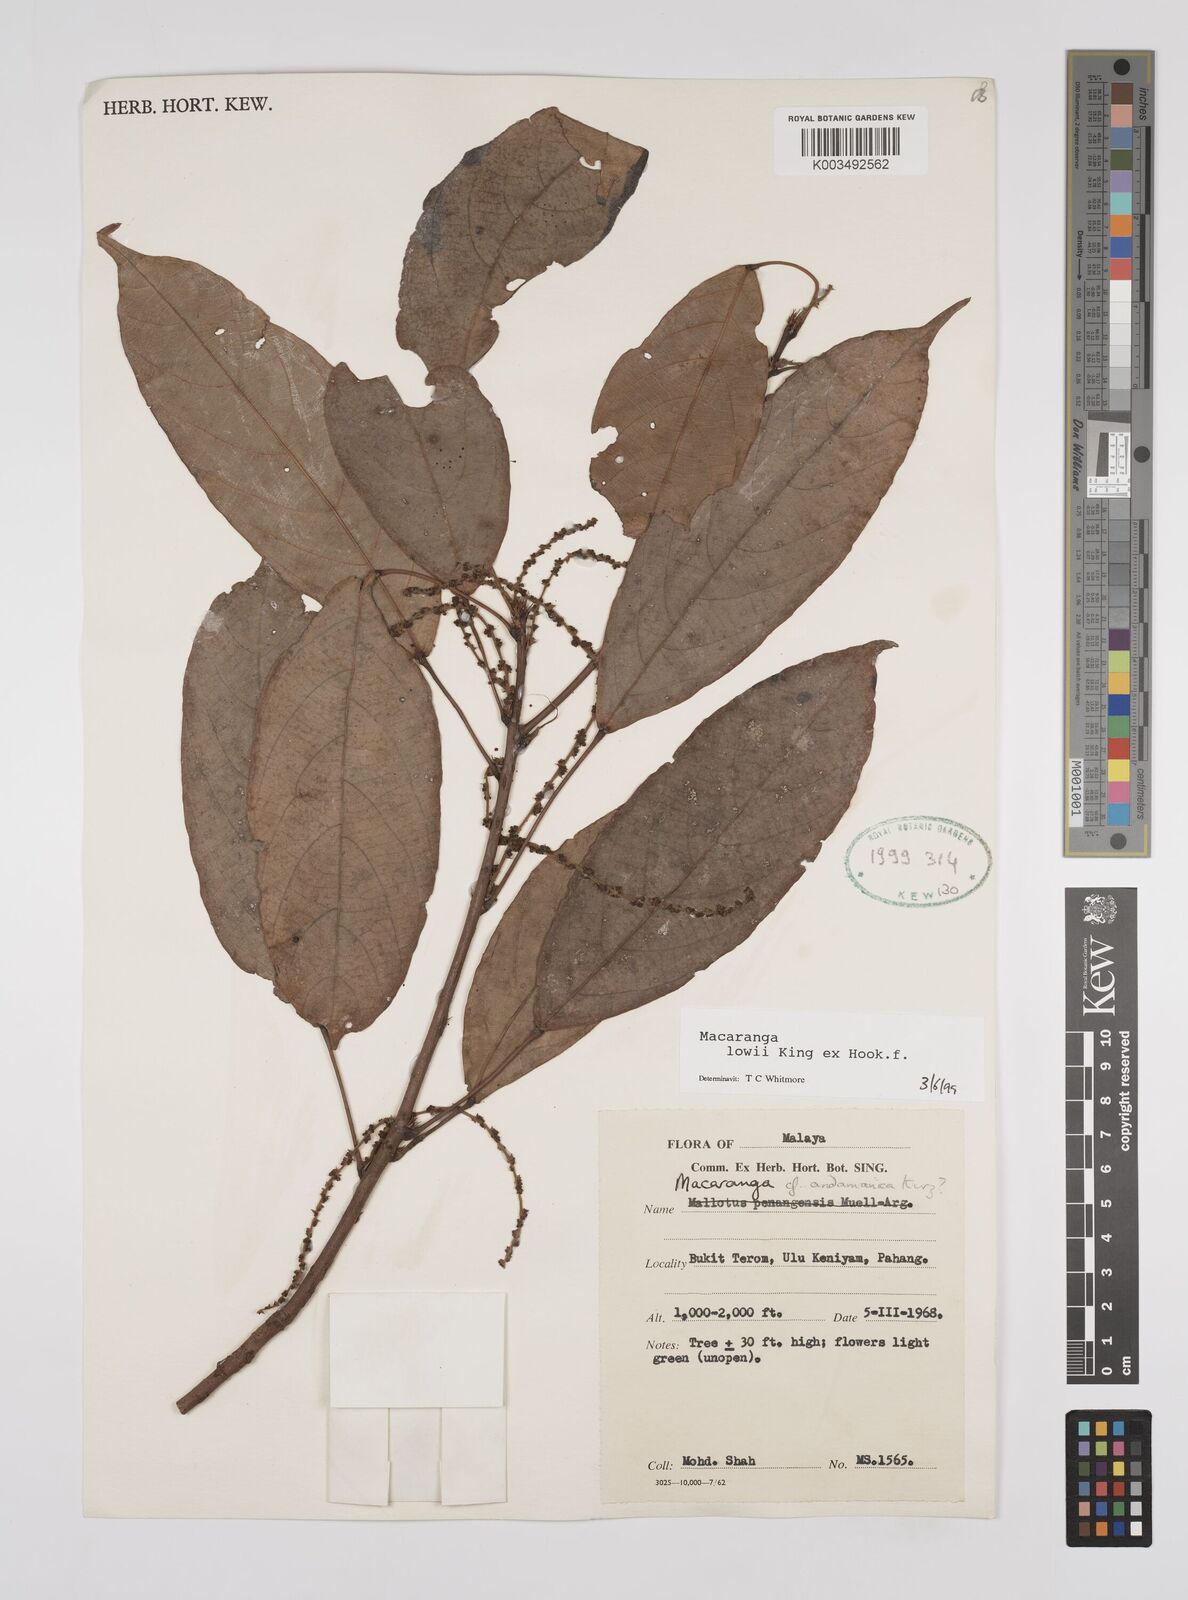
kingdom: Plantae
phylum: Tracheophyta
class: Magnoliopsida
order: Malpighiales
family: Euphorbiaceae
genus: Macaranga
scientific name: Macaranga lowii
